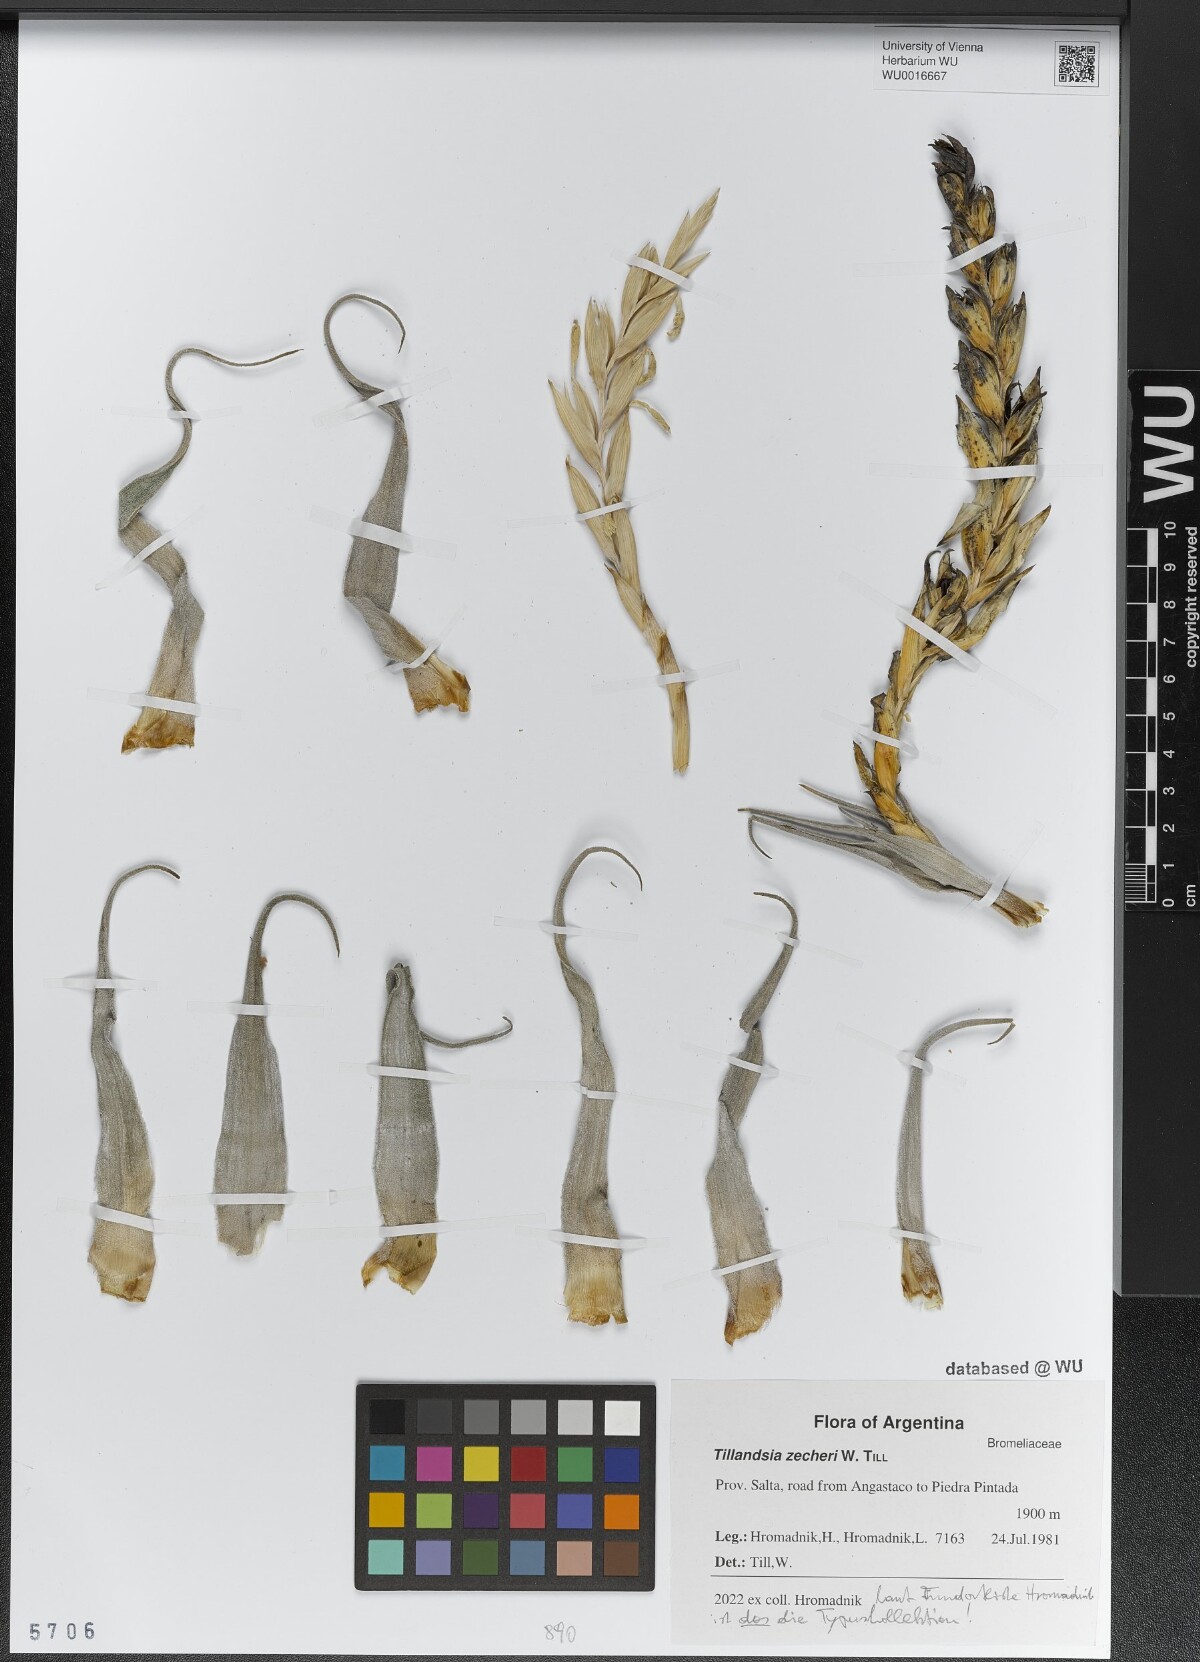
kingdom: Plantae
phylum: Tracheophyta
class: Liliopsida
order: Poales
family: Bromeliaceae
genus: Tillandsia
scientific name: Tillandsia zecheri
